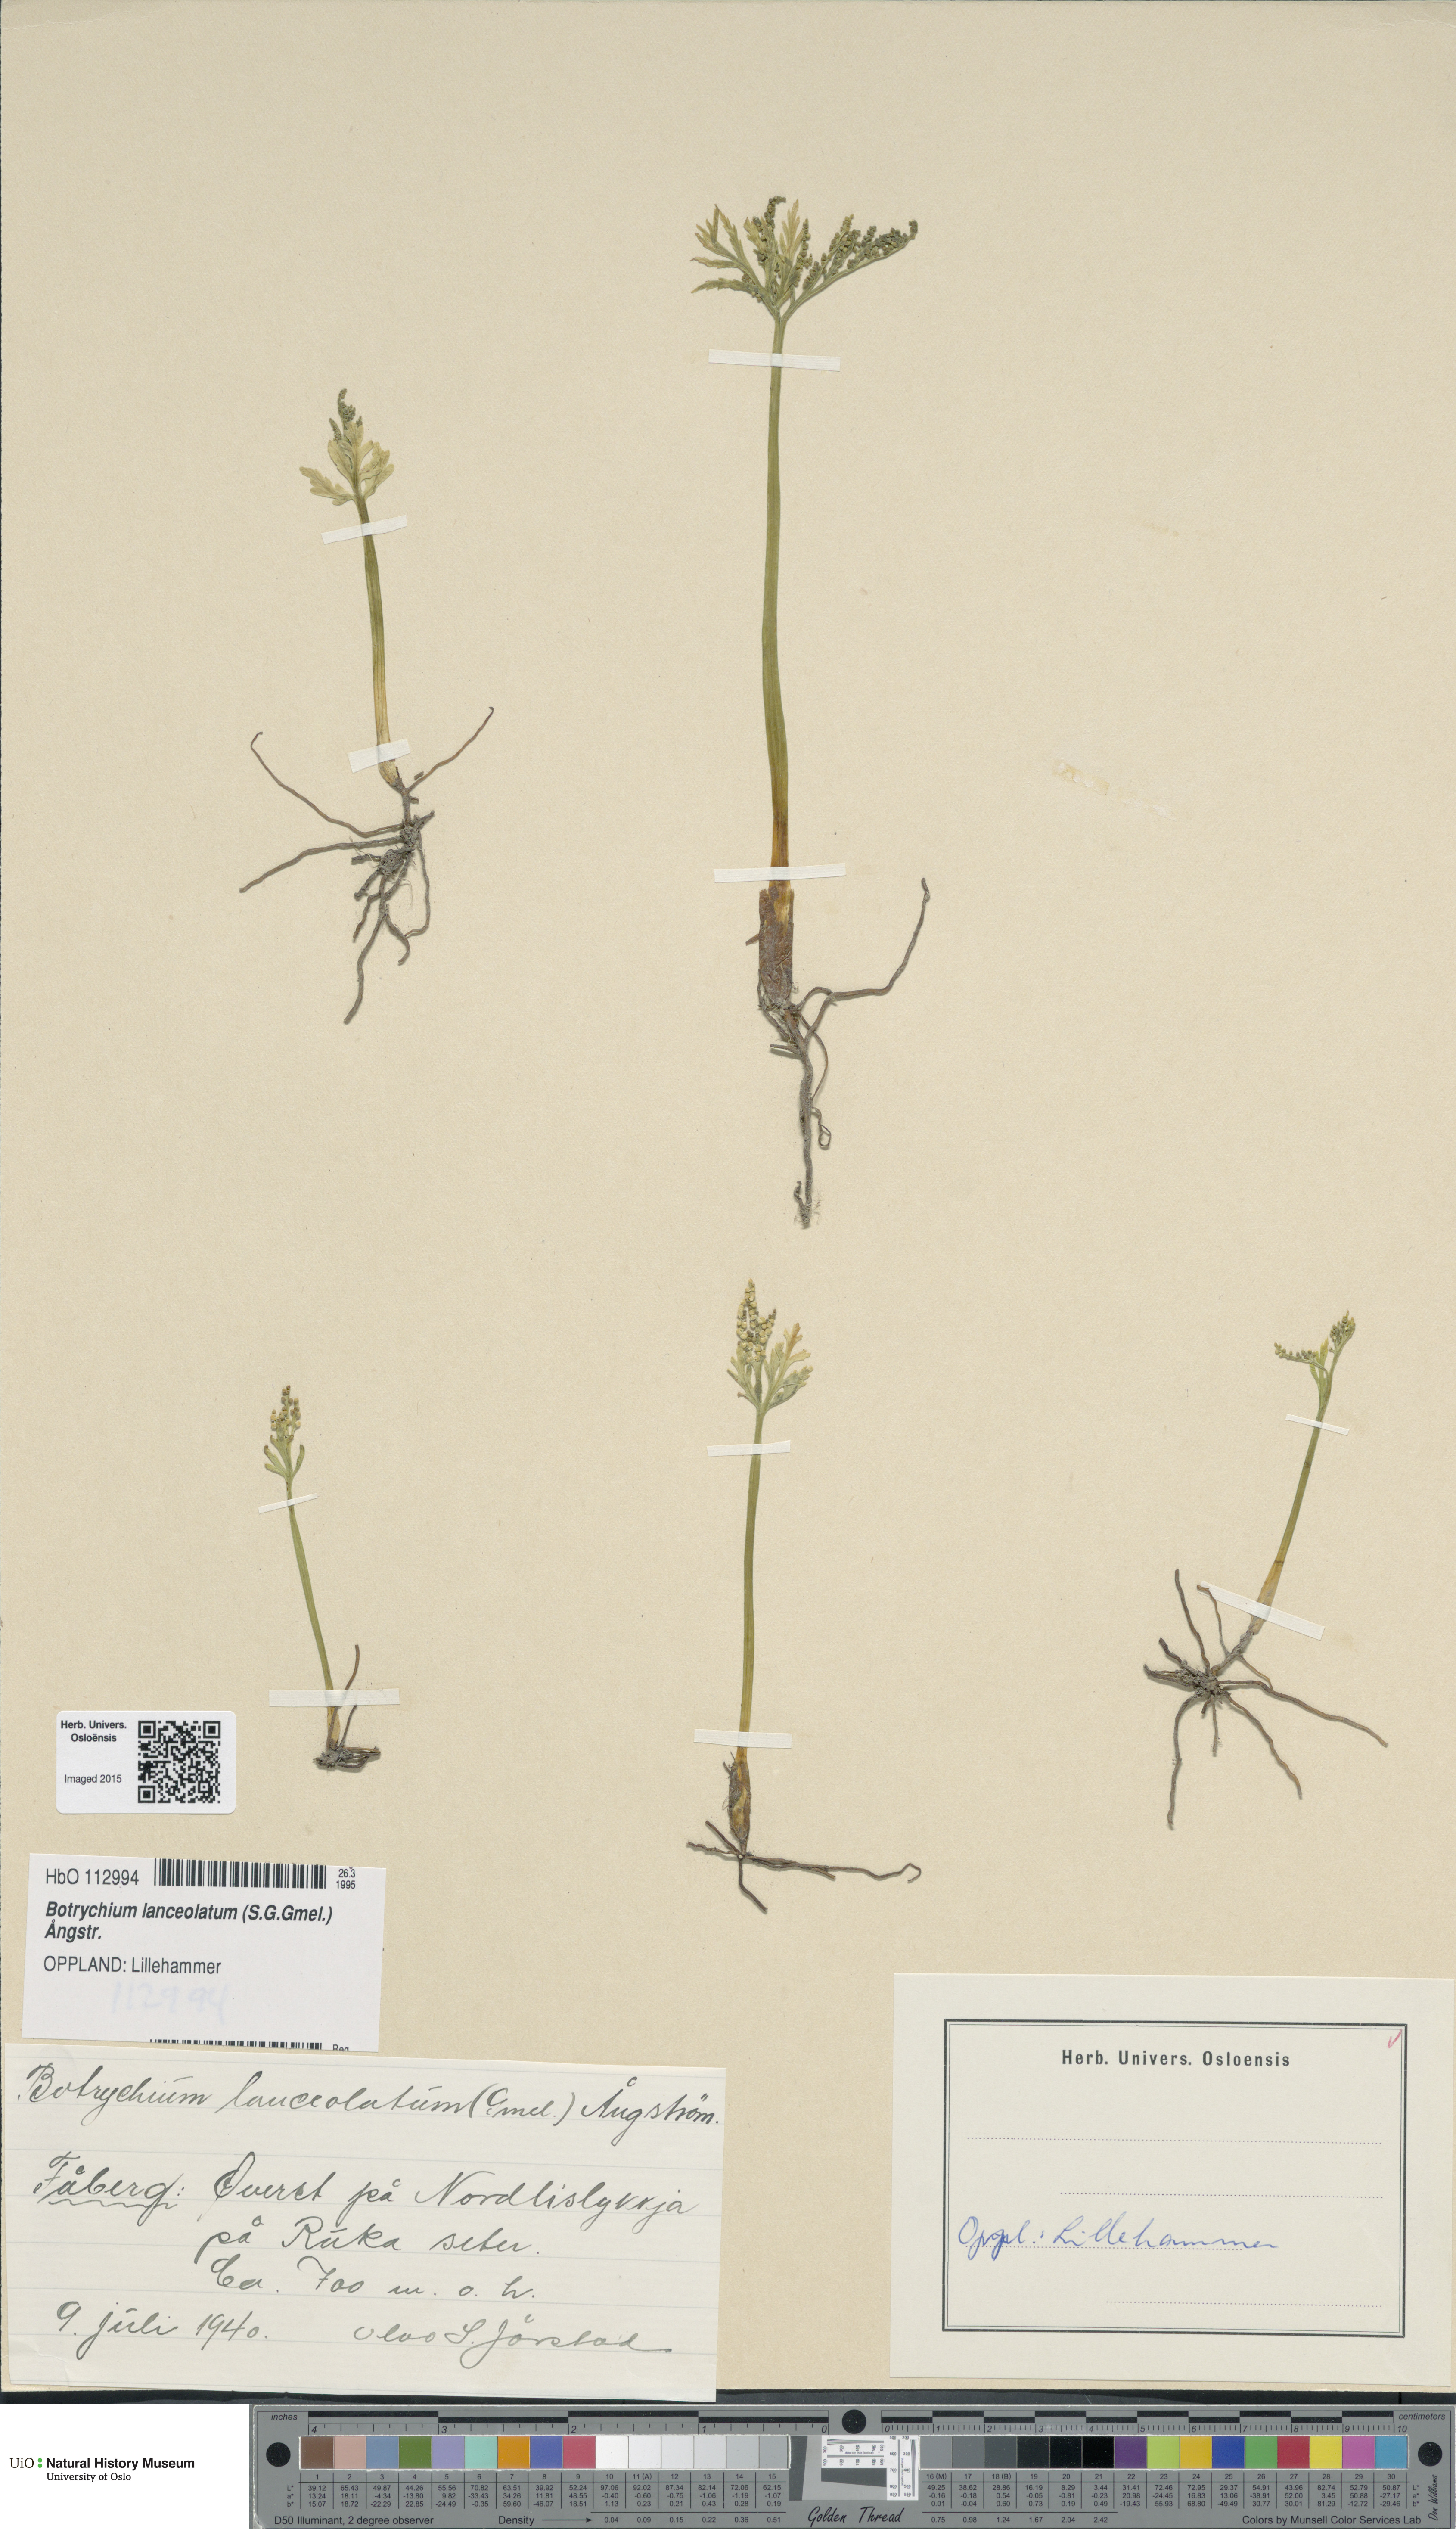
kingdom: Plantae
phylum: Tracheophyta
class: Polypodiopsida
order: Ophioglossales
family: Ophioglossaceae
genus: Botrychium
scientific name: Botrychium lanceolatum
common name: Lance-leaved moonwort
